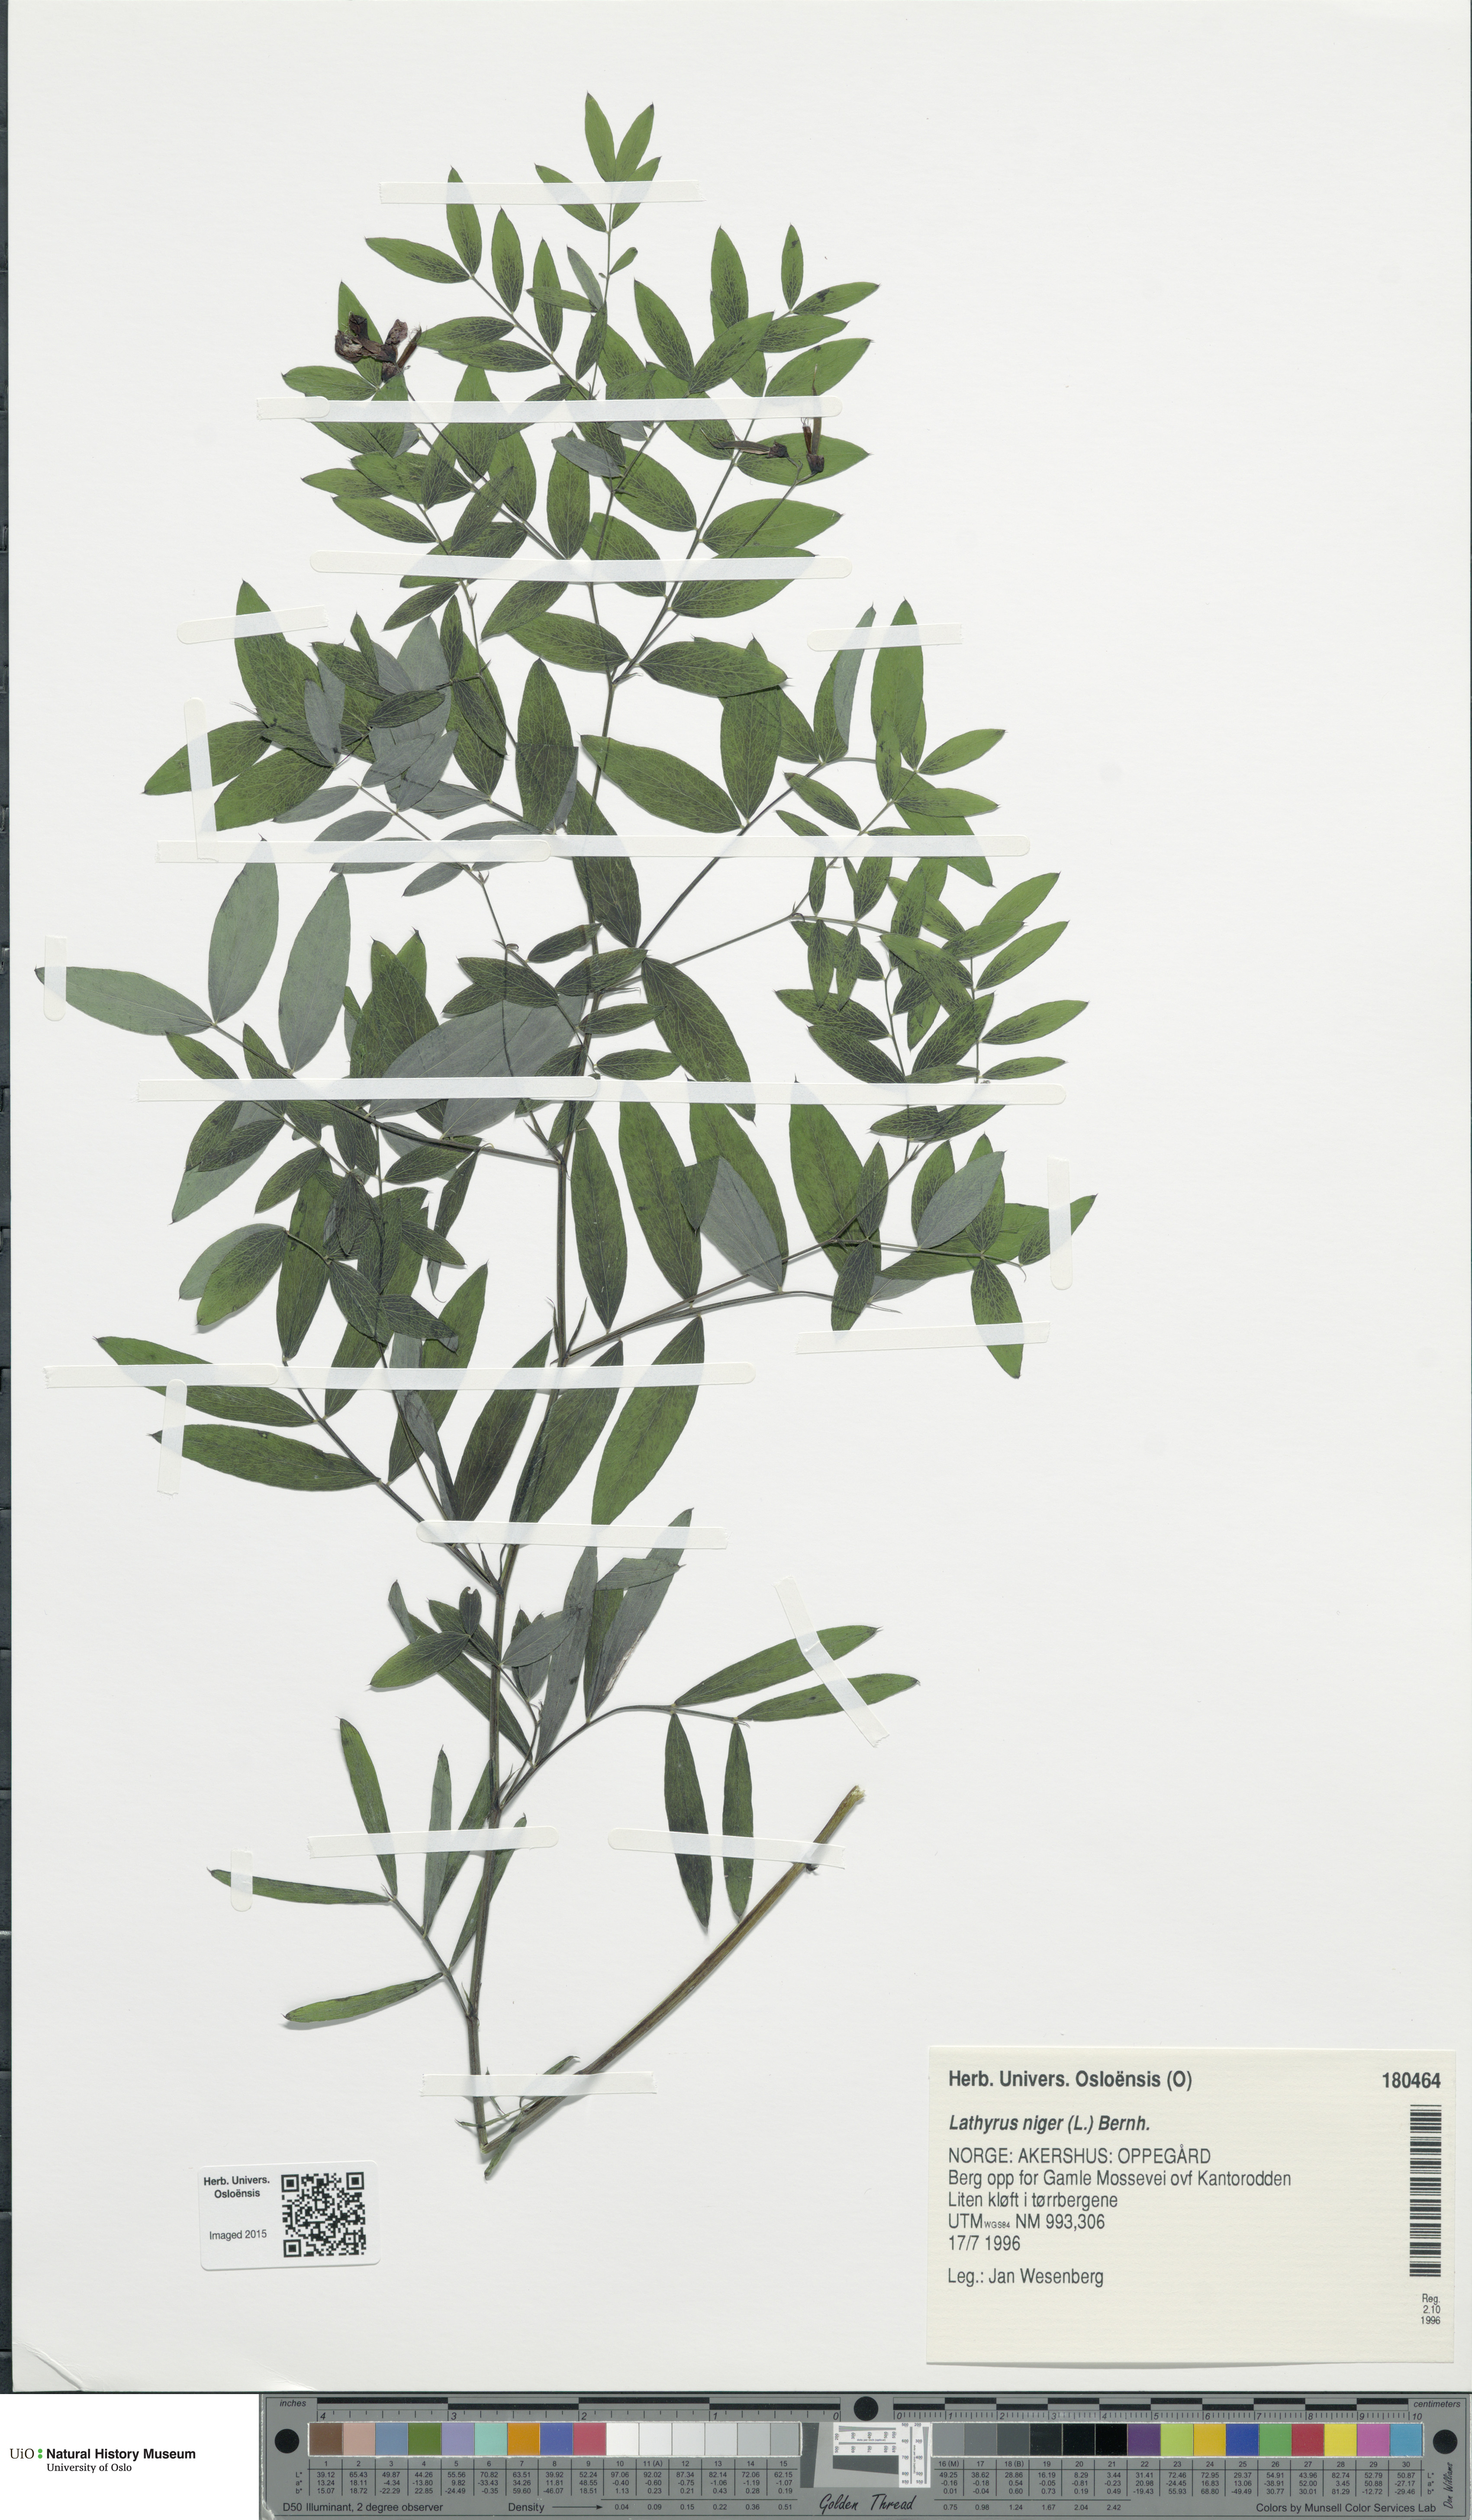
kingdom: Plantae
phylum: Tracheophyta
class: Magnoliopsida
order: Fabales
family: Fabaceae
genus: Lathyrus
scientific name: Lathyrus niger
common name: Black pea
